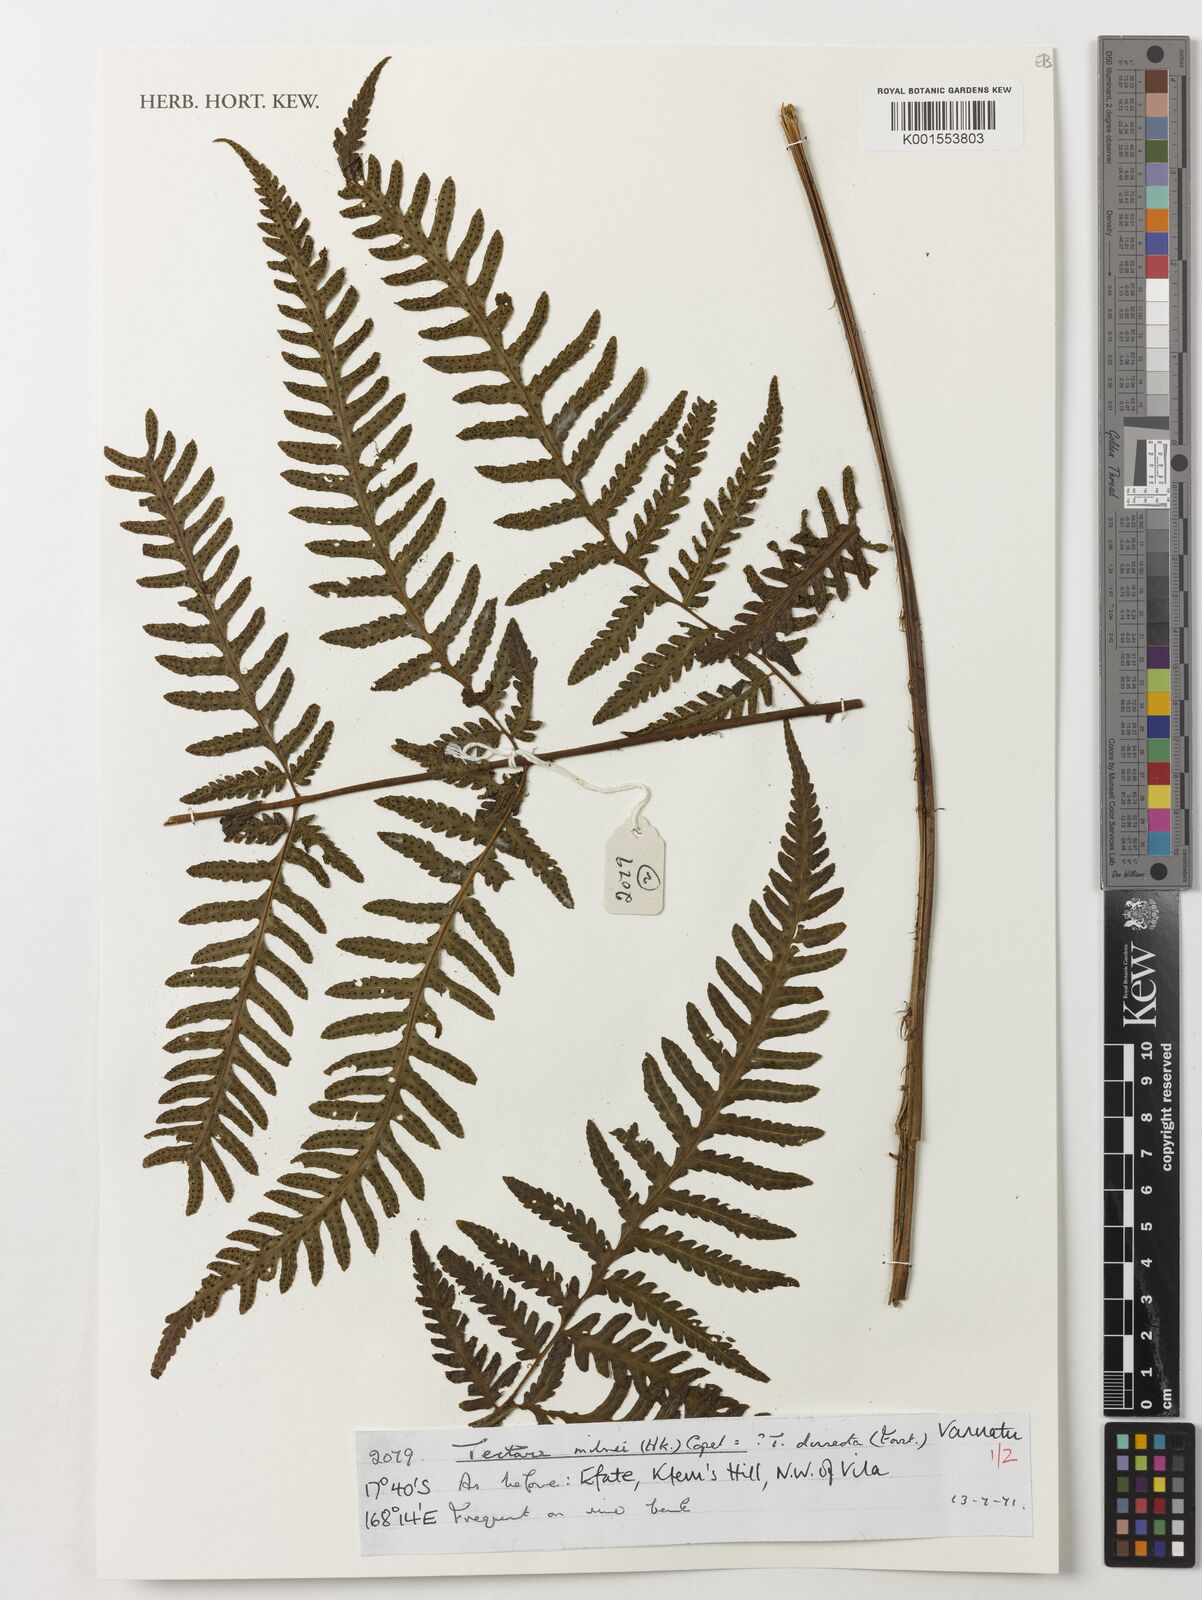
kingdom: Plantae
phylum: Tracheophyta
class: Polypodiopsida
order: Polypodiales
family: Tectariaceae
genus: Tectaria
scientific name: Tectaria hookeri
